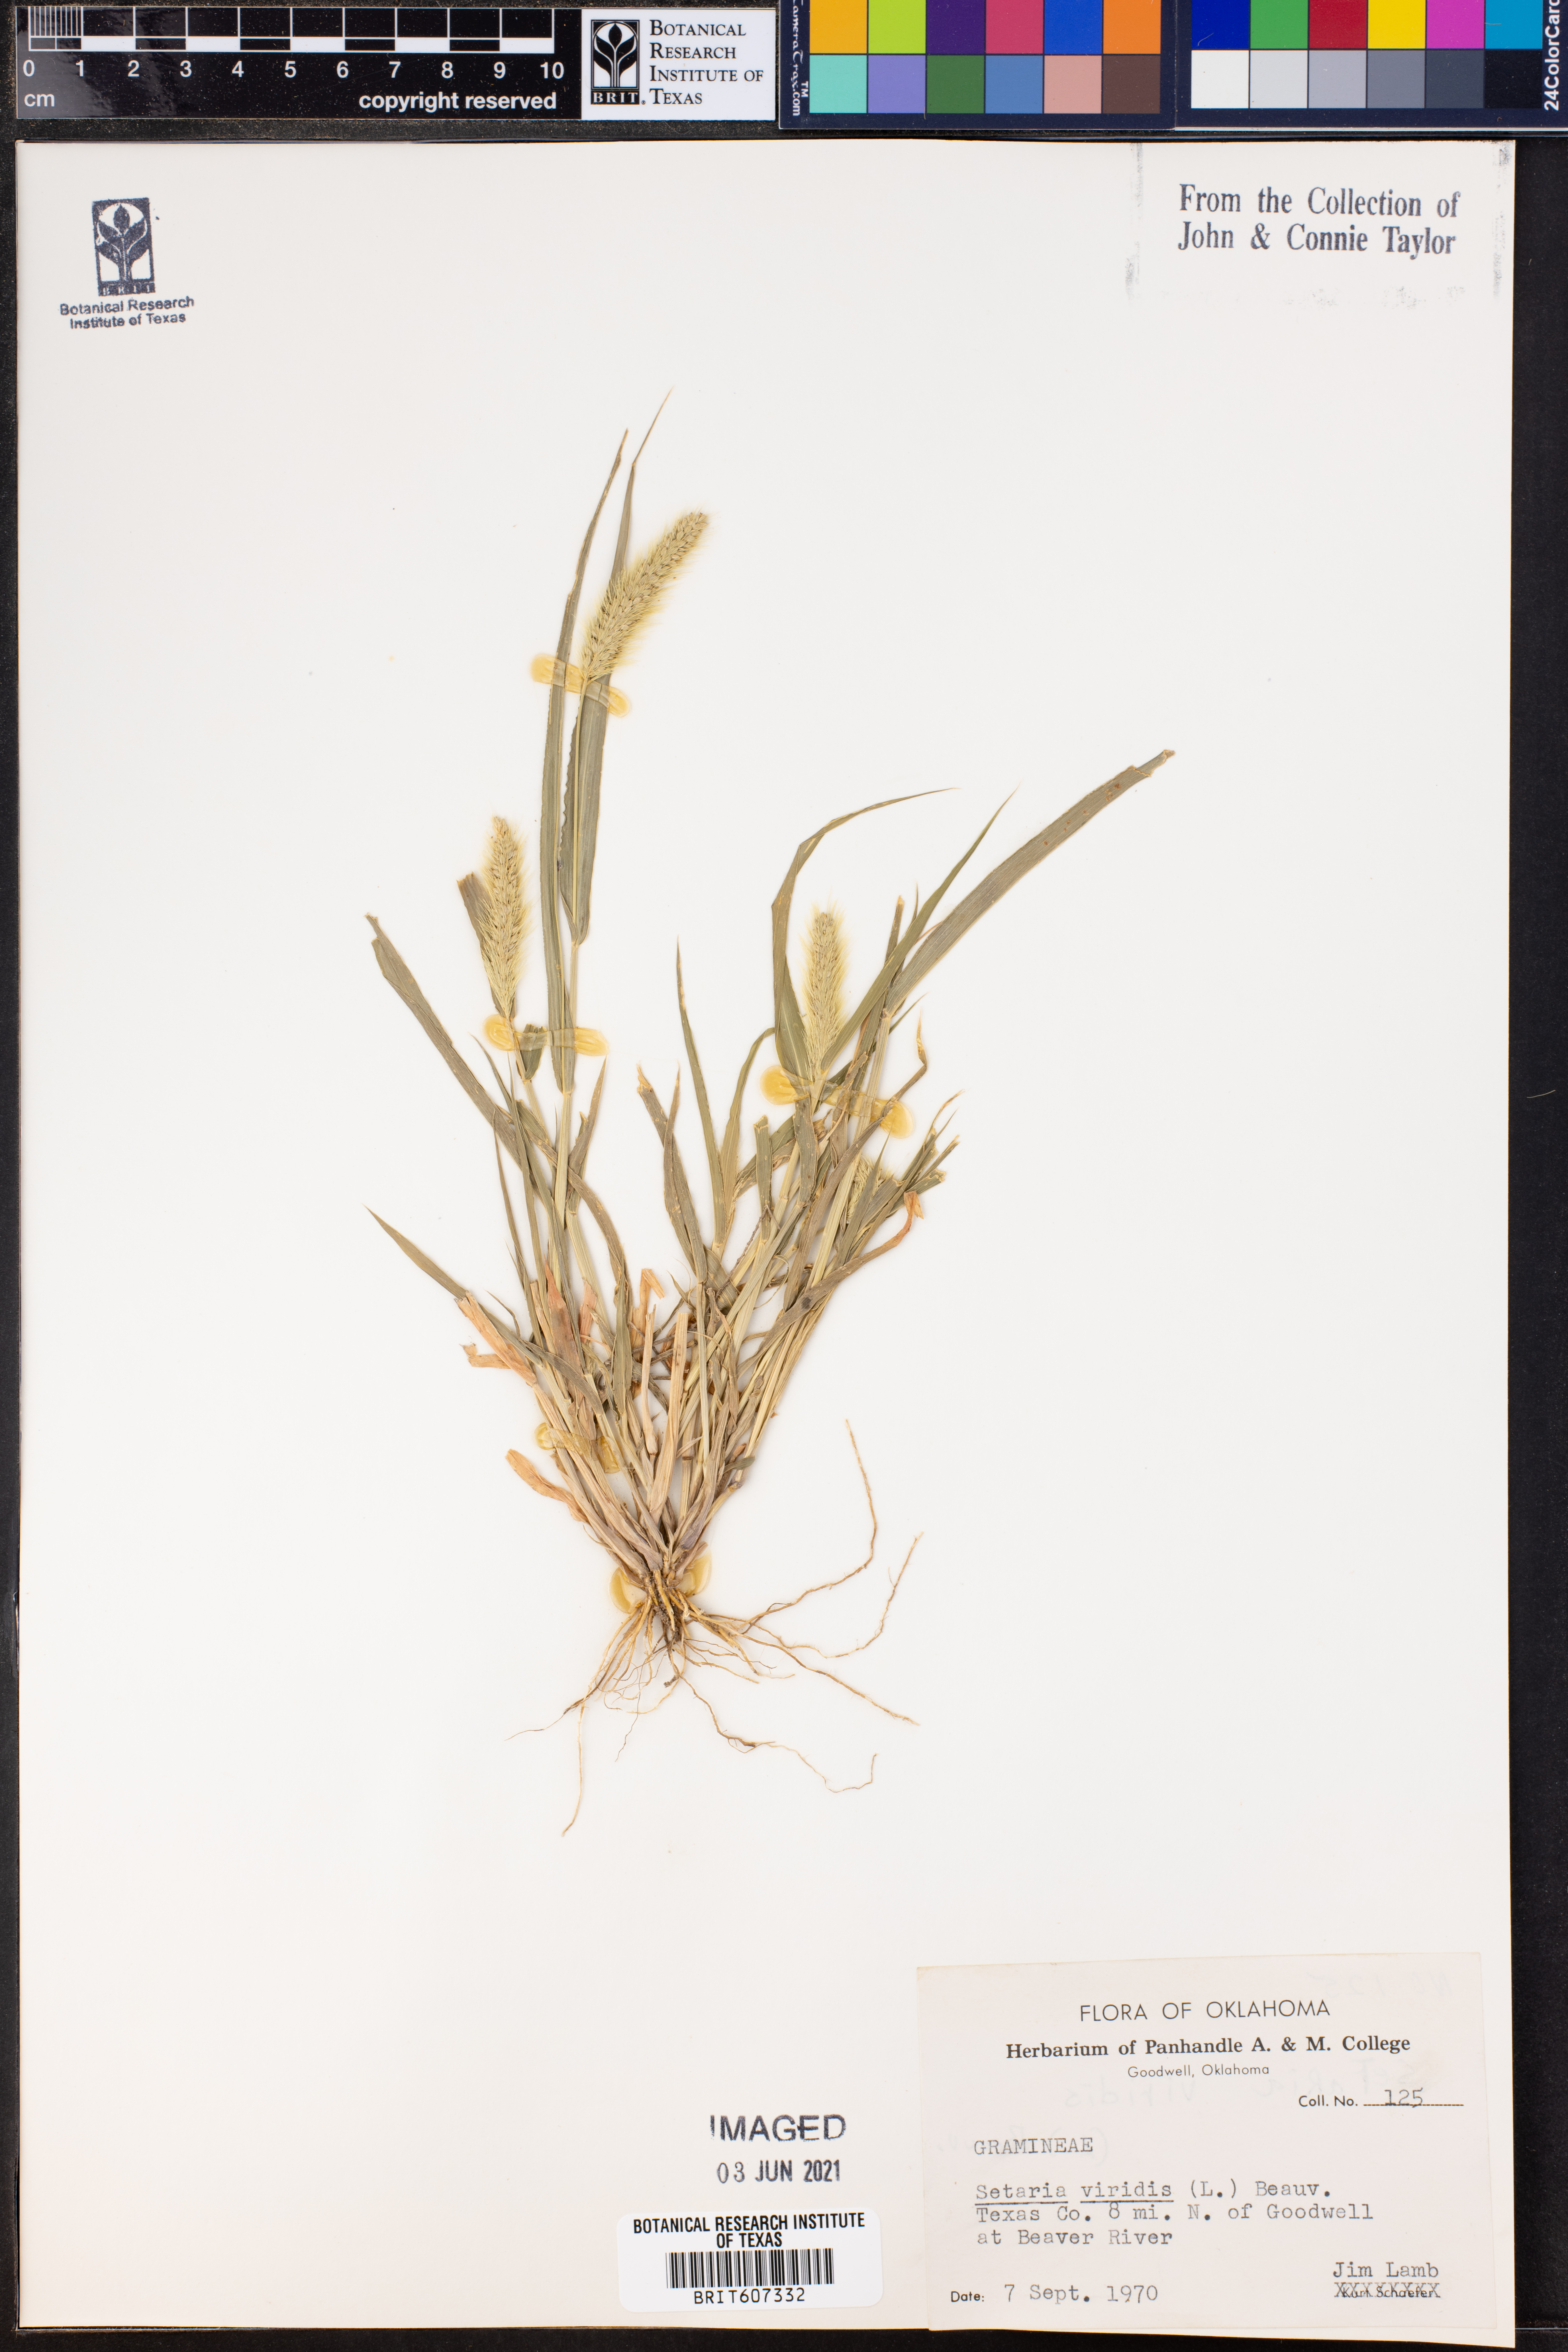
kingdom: Plantae
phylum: Tracheophyta
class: Liliopsida
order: Poales
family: Poaceae
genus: Setaria
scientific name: Setaria viridis
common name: Green bristlegrass
